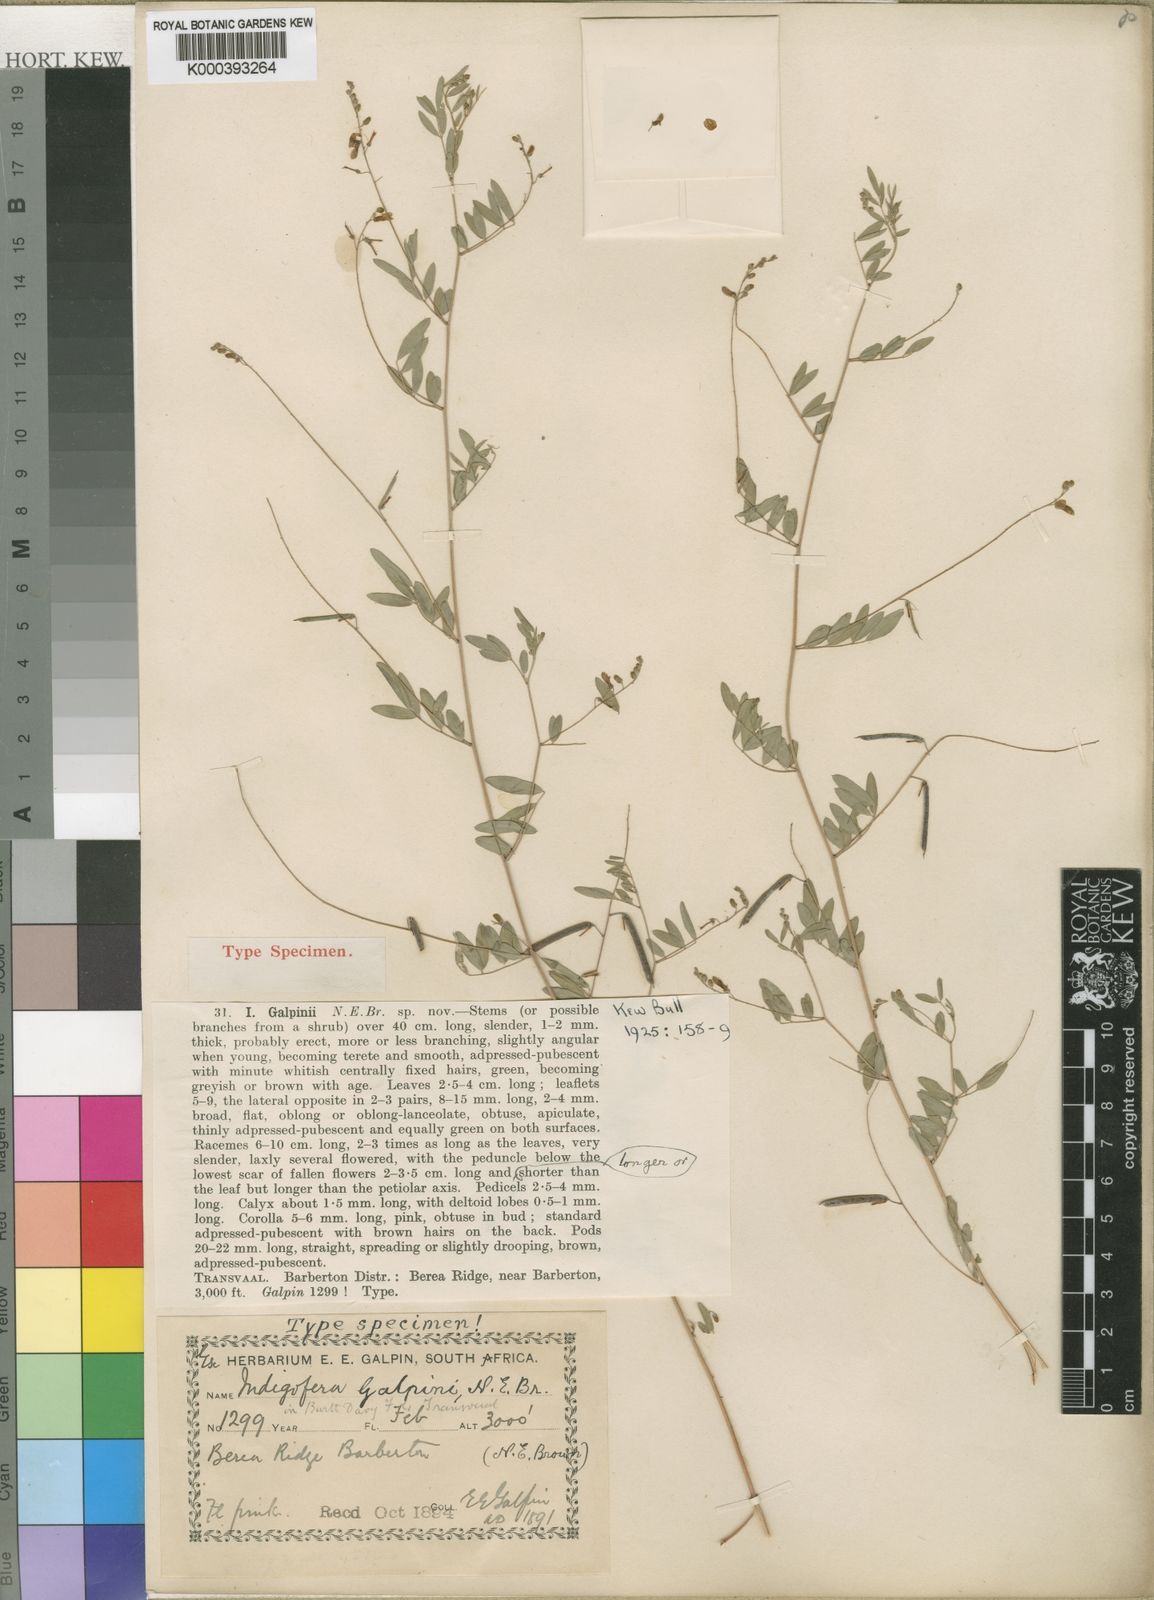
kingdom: Plantae
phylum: Tracheophyta
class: Magnoliopsida
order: Fabales
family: Fabaceae
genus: Indigofera
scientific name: Indigofera galpinii
